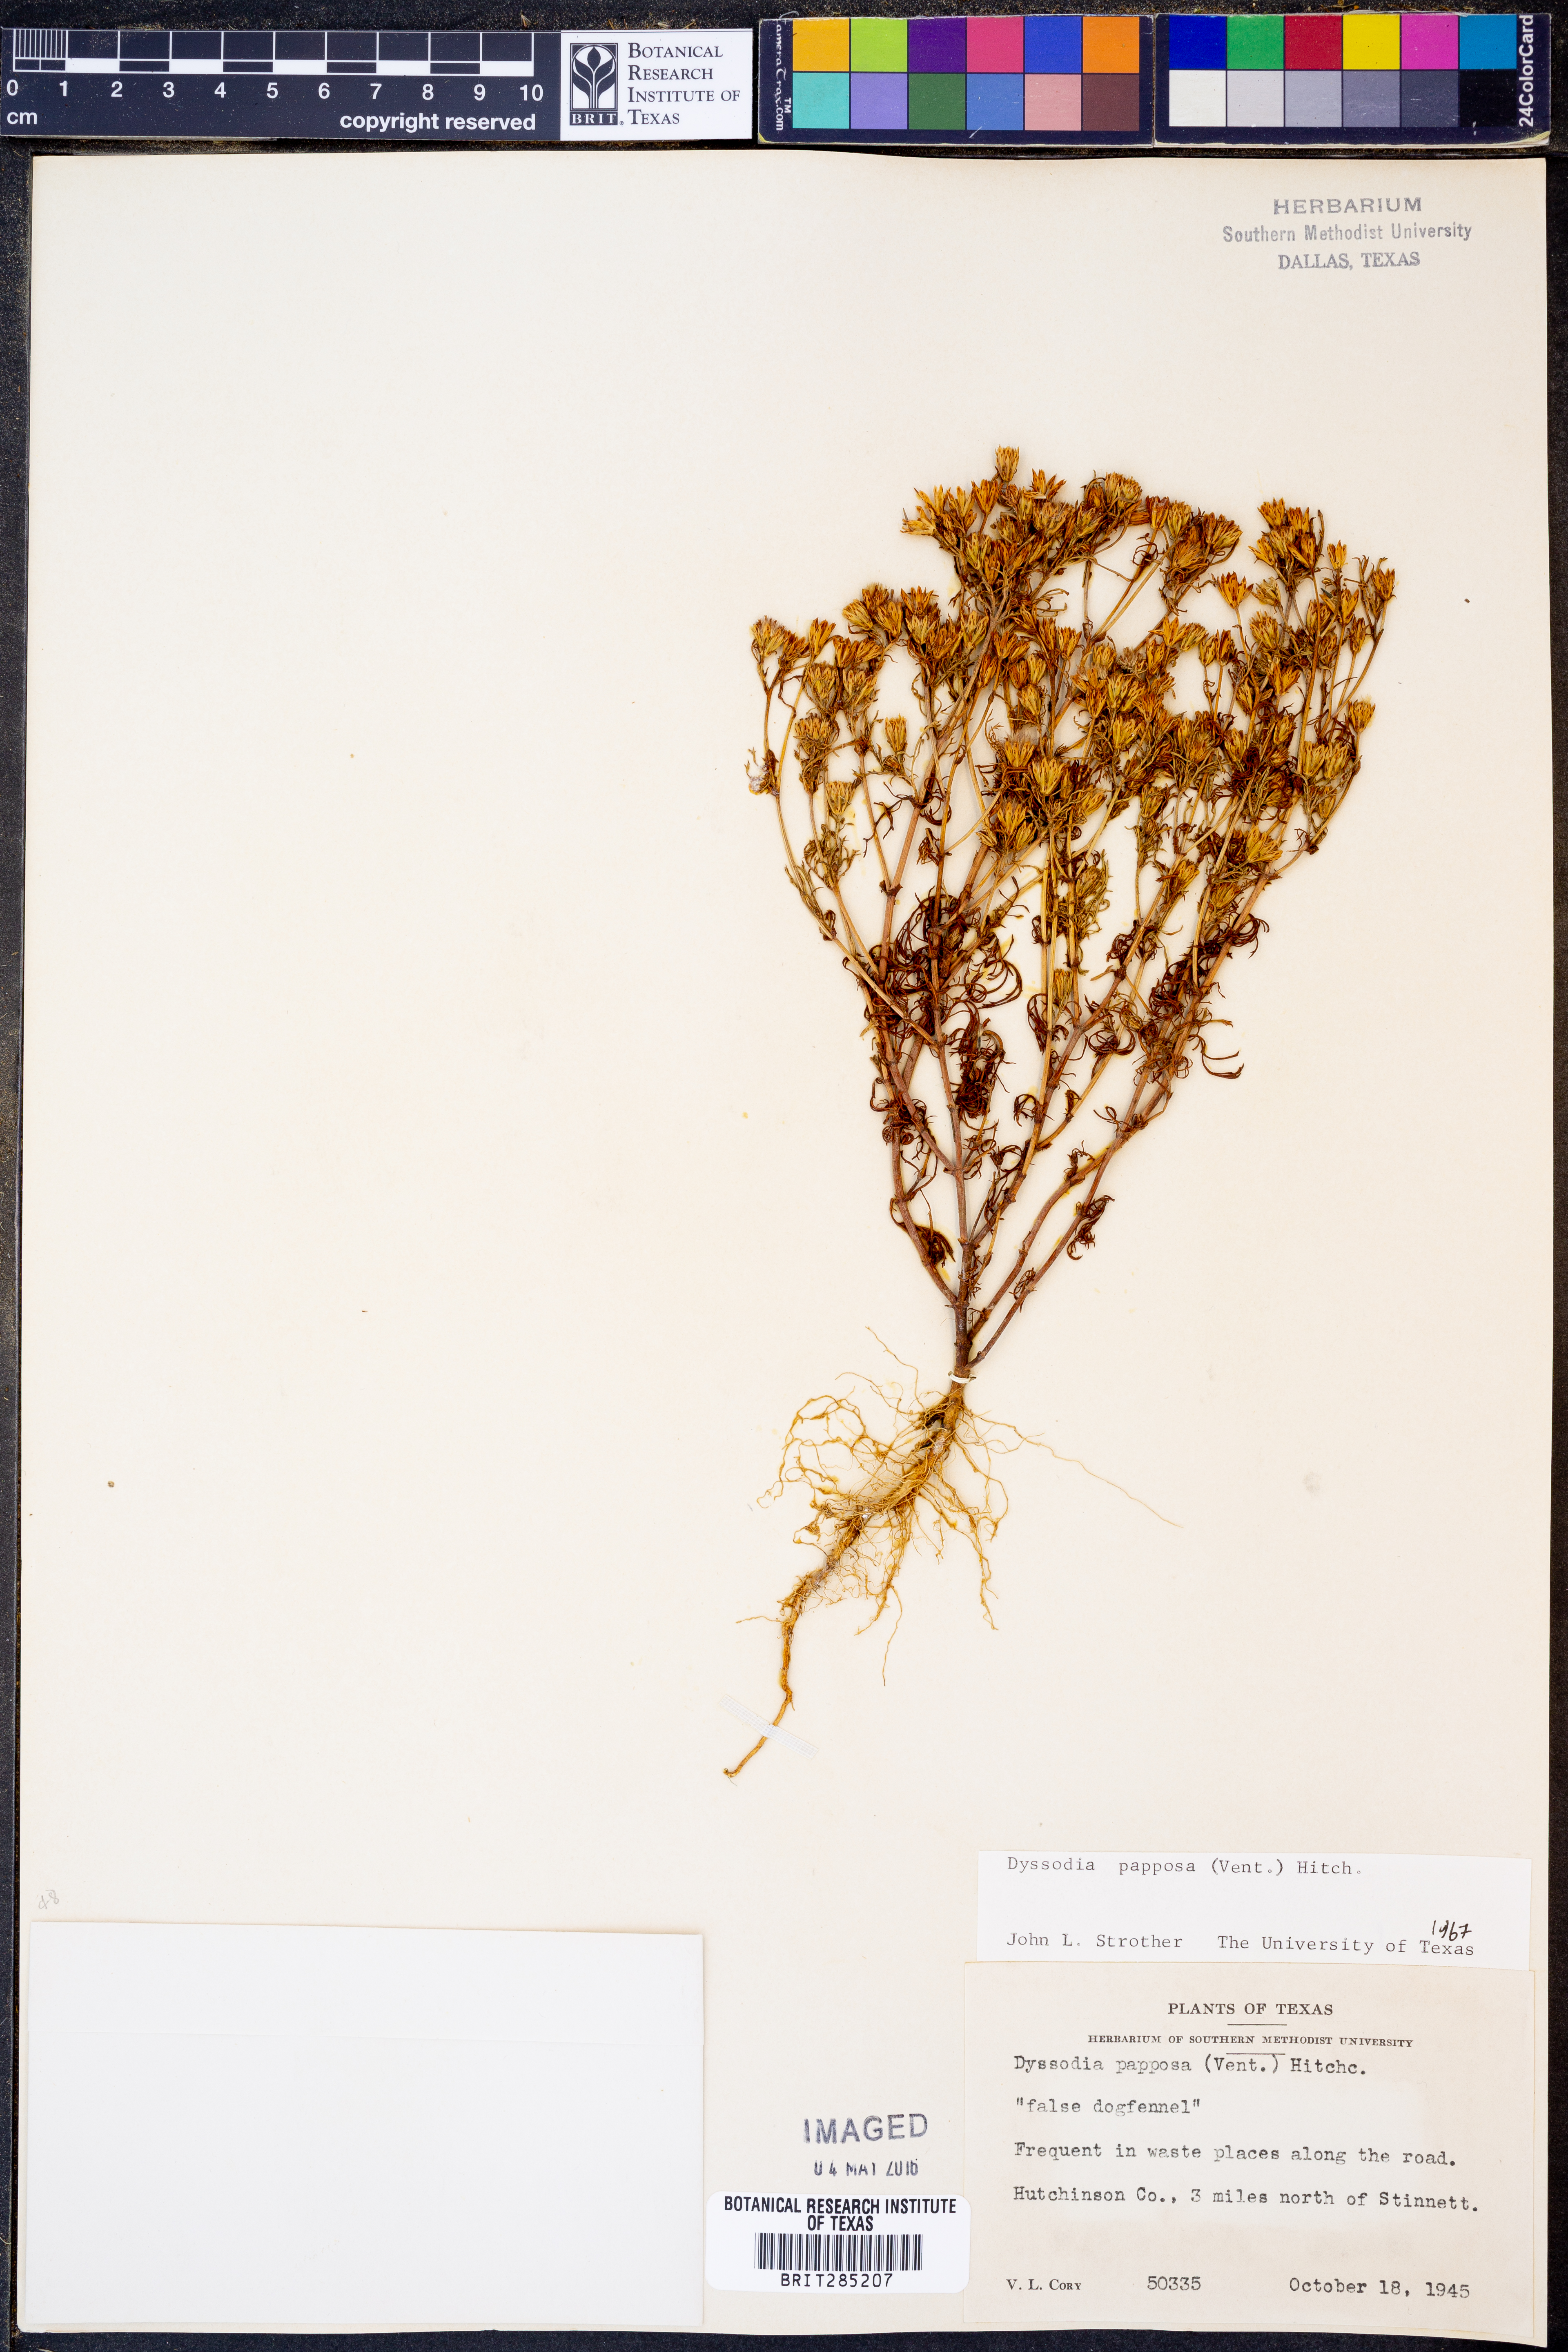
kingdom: Plantae
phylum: Tracheophyta
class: Magnoliopsida
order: Asterales
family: Asteraceae
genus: Dyssodia
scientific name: Dyssodia papposa
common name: Dogweed
